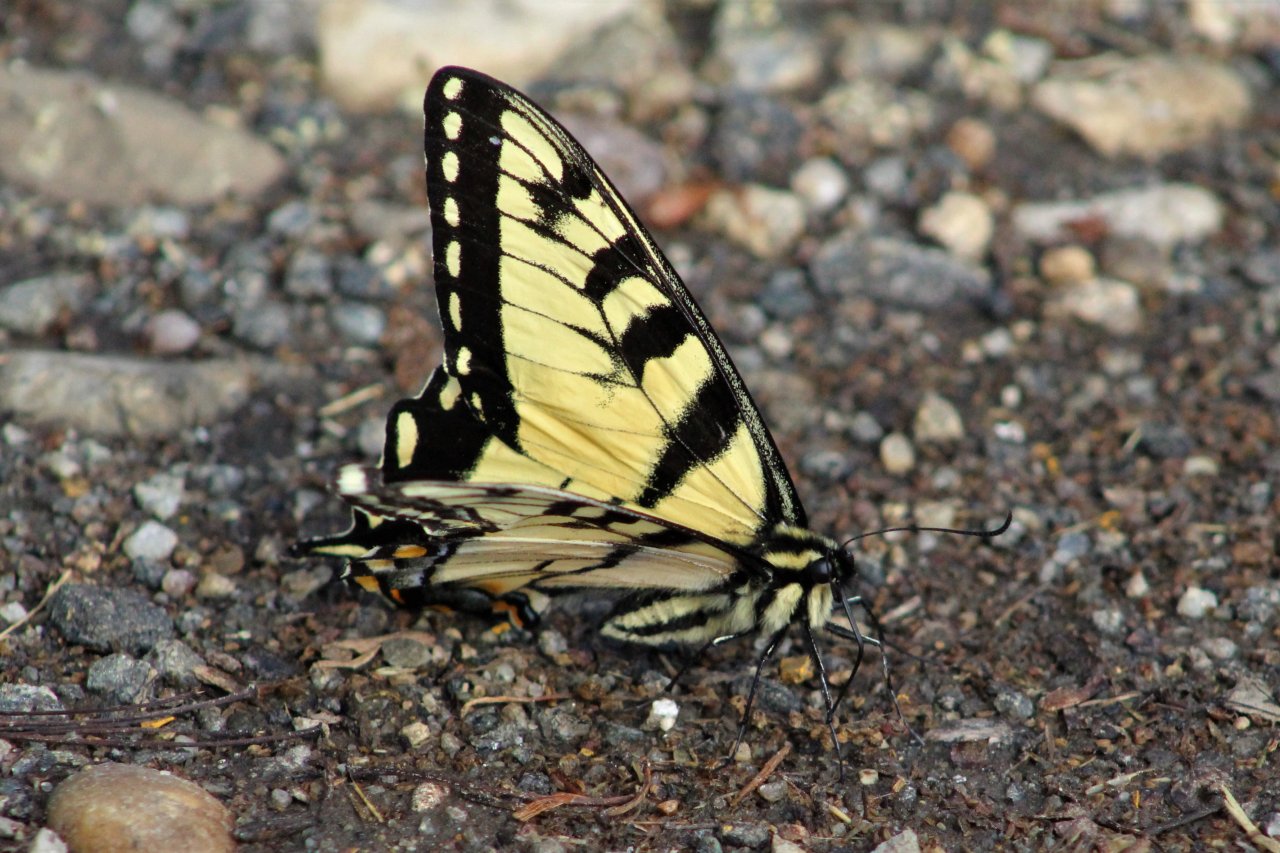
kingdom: Animalia
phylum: Arthropoda
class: Insecta
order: Lepidoptera
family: Papilionidae
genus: Pterourus
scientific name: Pterourus glaucus
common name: Eastern Tiger Swallowtail
